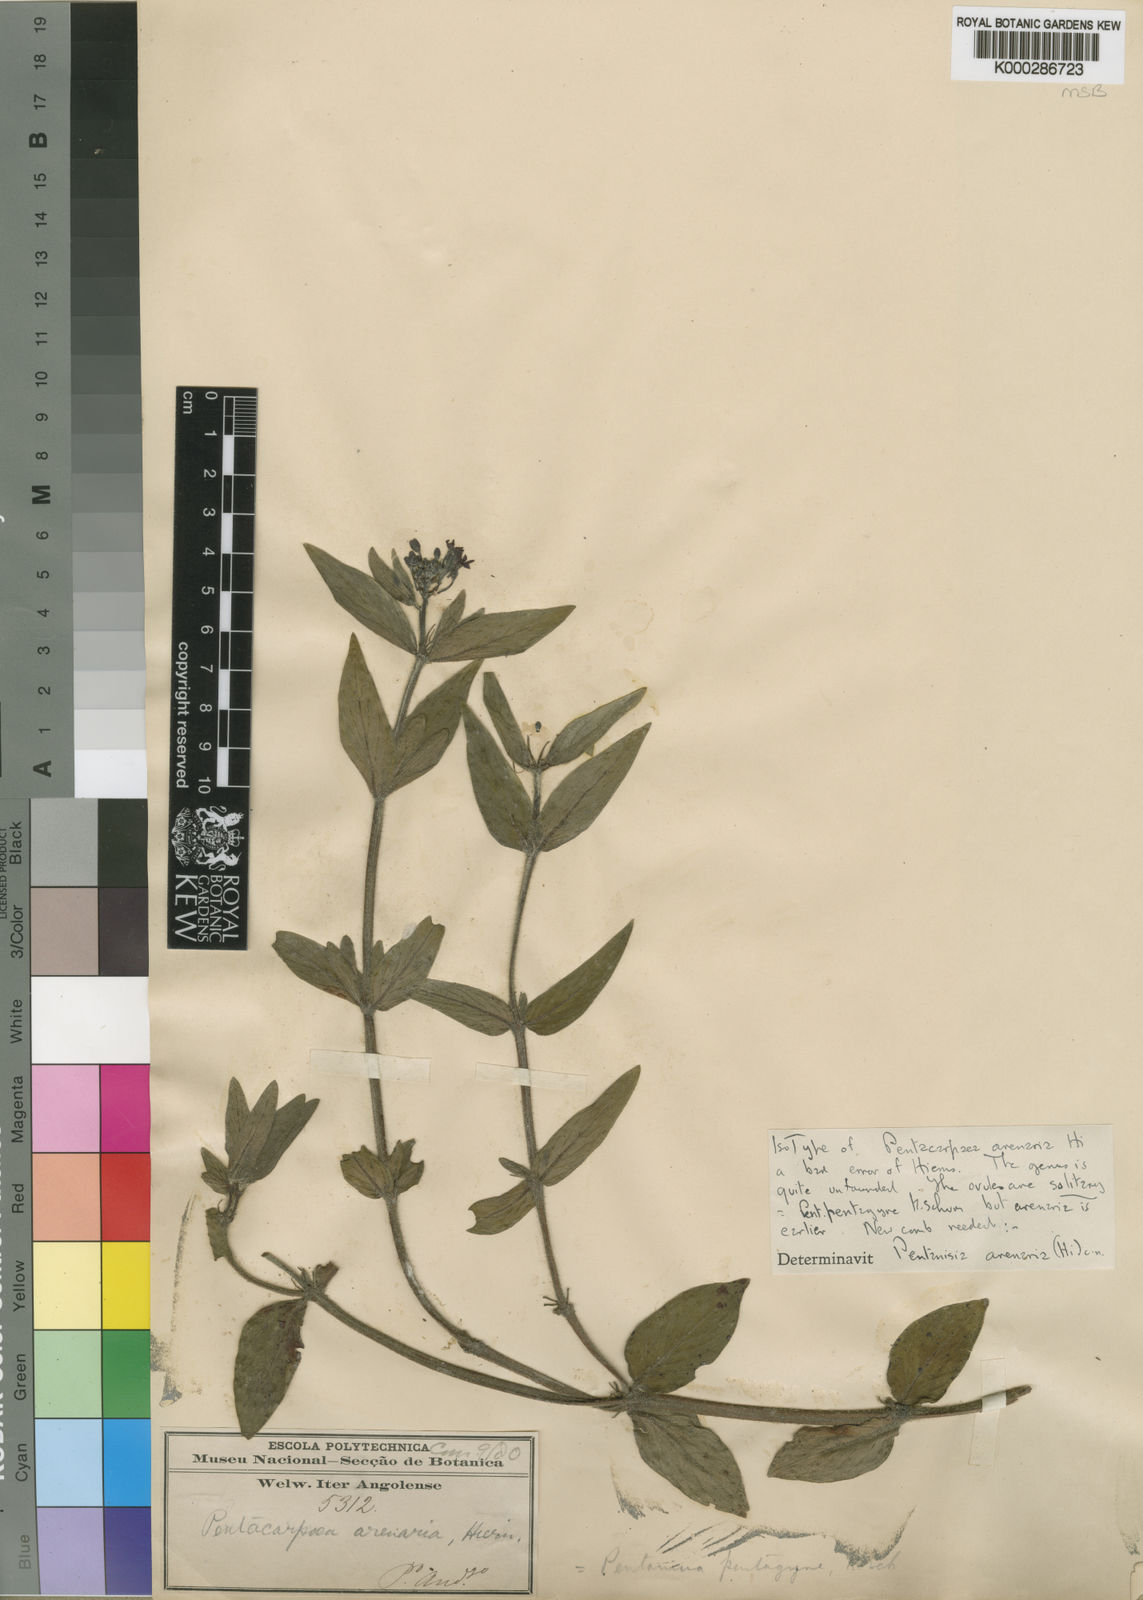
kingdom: Plantae
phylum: Tracheophyta
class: Magnoliopsida
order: Gentianales
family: Rubiaceae
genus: Pentanisia
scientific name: Pentanisia arenaria
